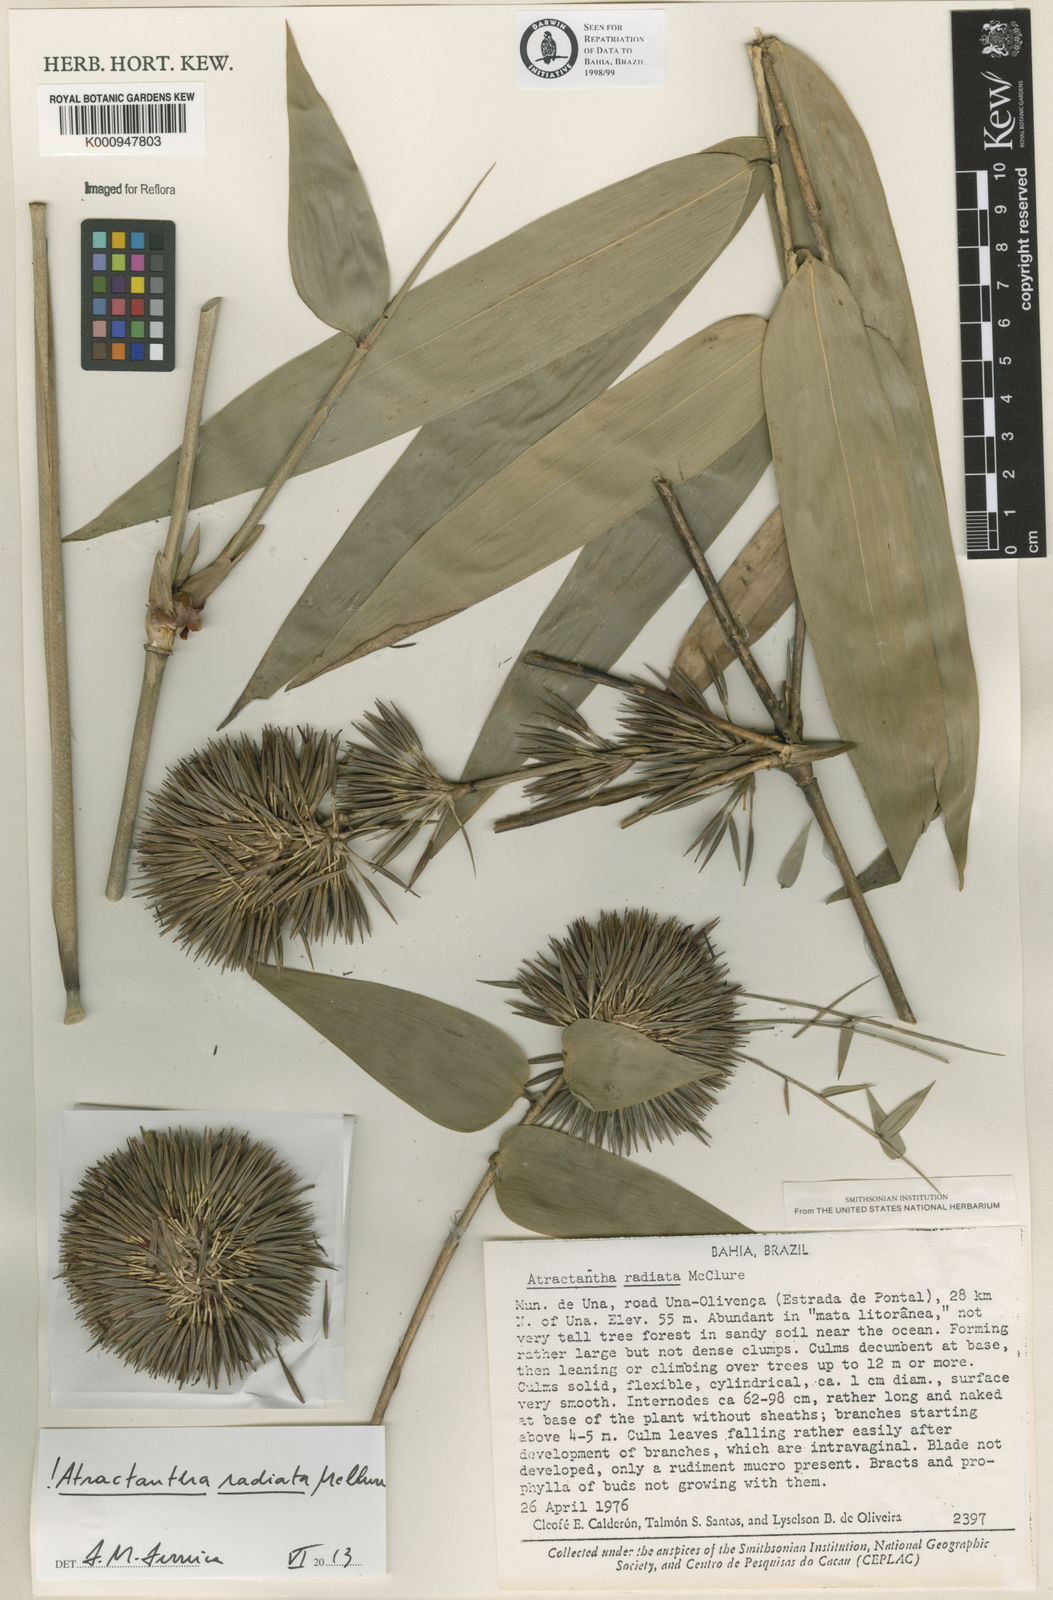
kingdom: Plantae
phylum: Tracheophyta
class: Liliopsida
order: Poales
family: Poaceae
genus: Atractantha
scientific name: Atractantha radiata
